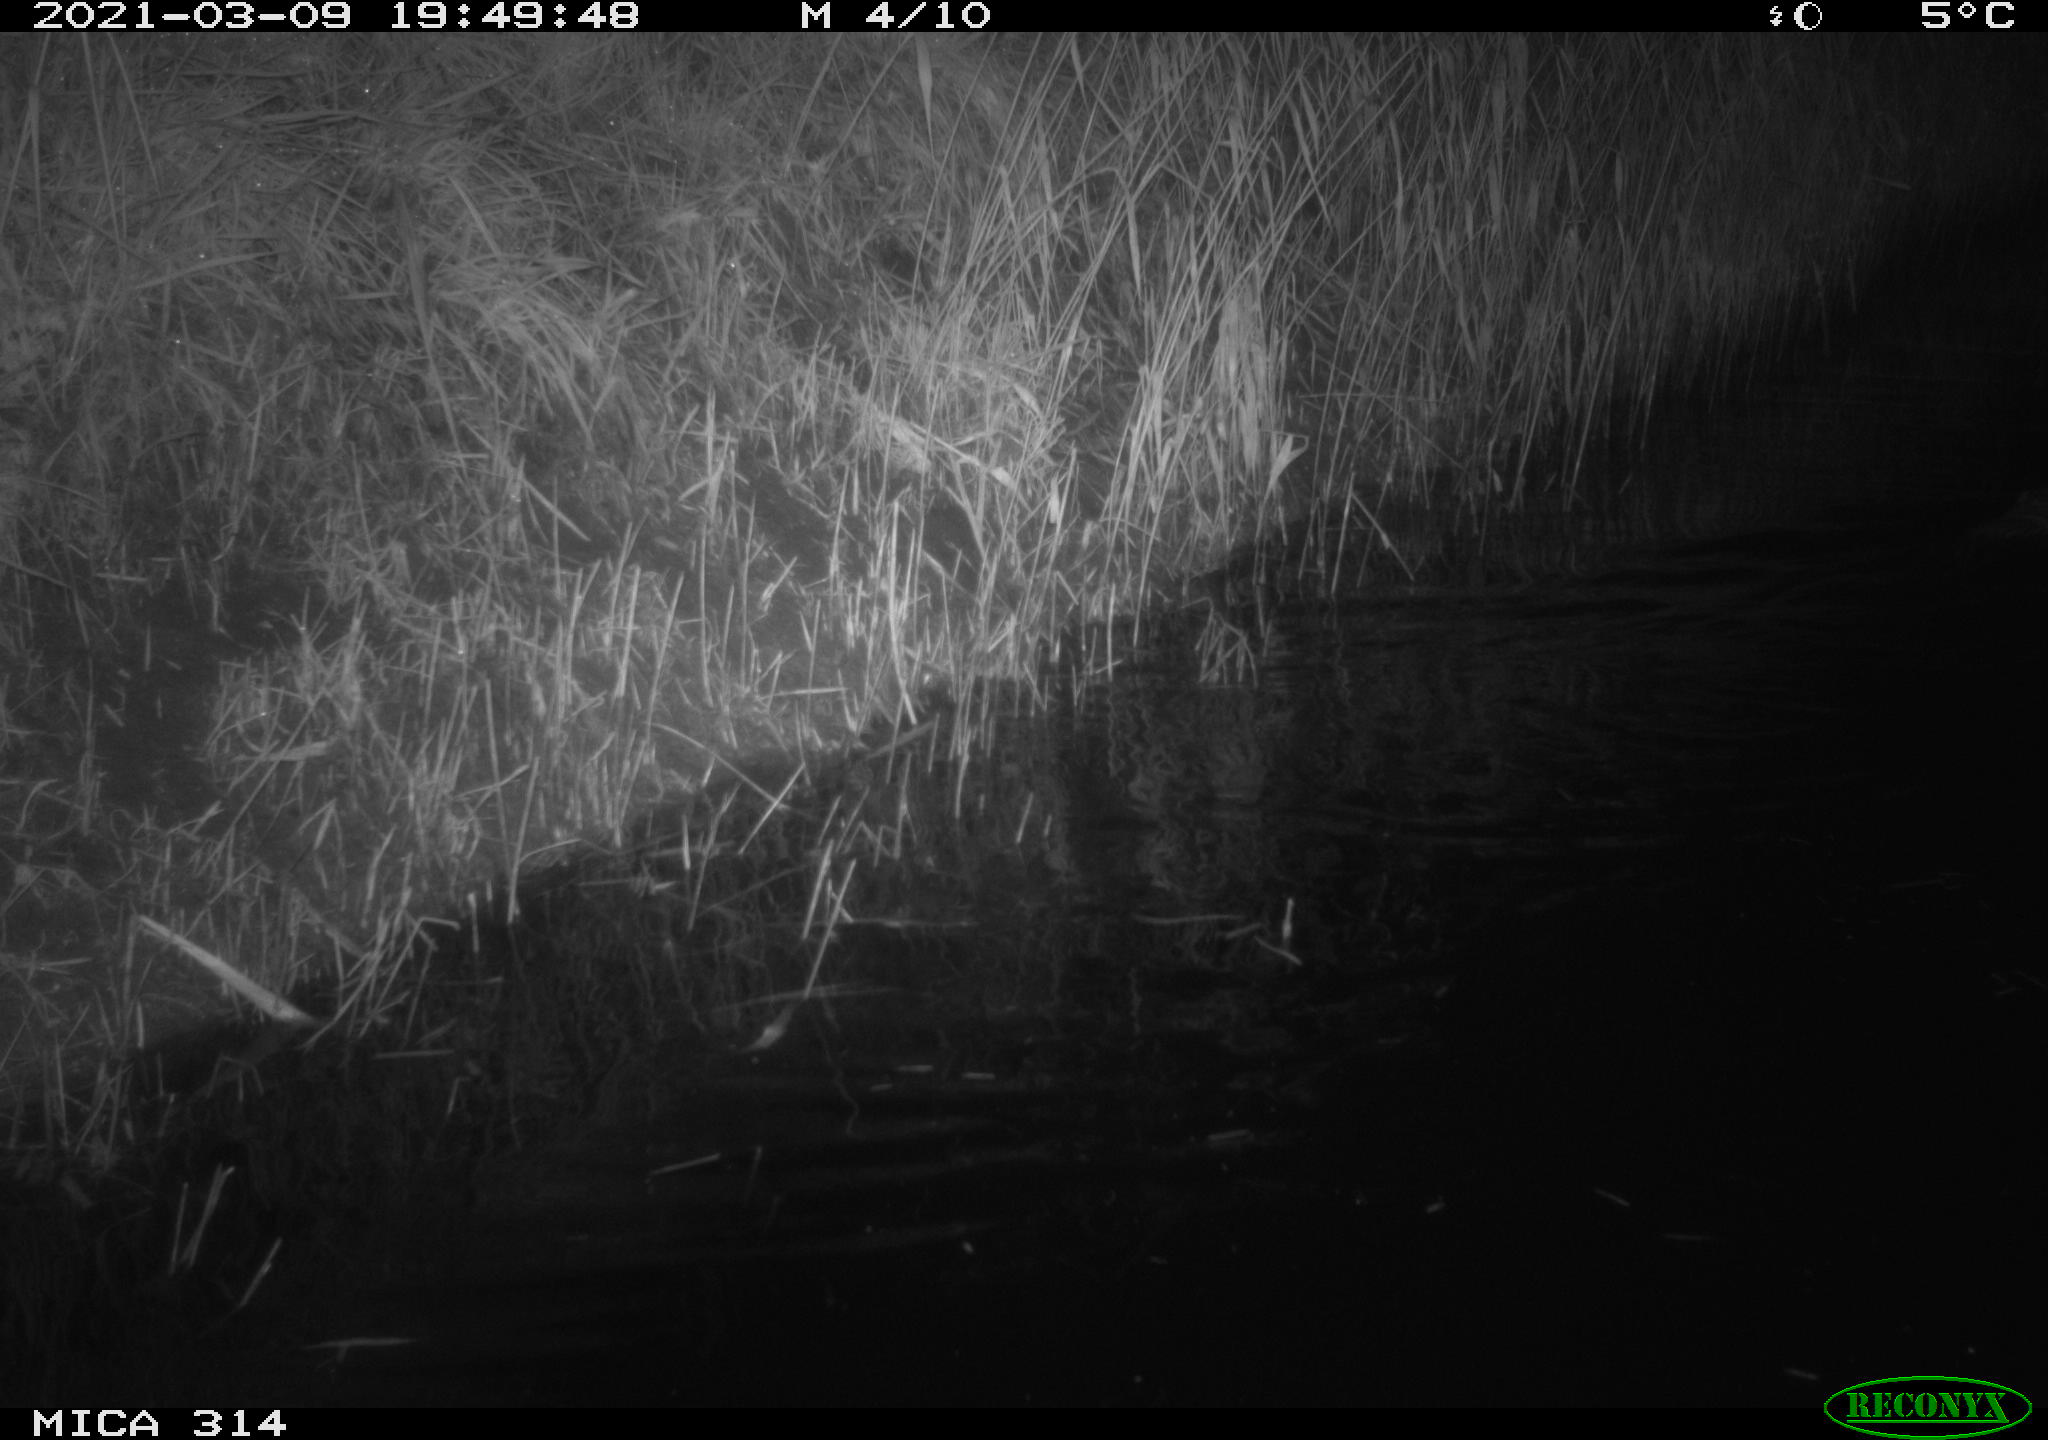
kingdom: Animalia
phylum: Chordata
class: Mammalia
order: Rodentia
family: Cricetidae
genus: Ondatra
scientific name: Ondatra zibethicus
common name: Muskrat
